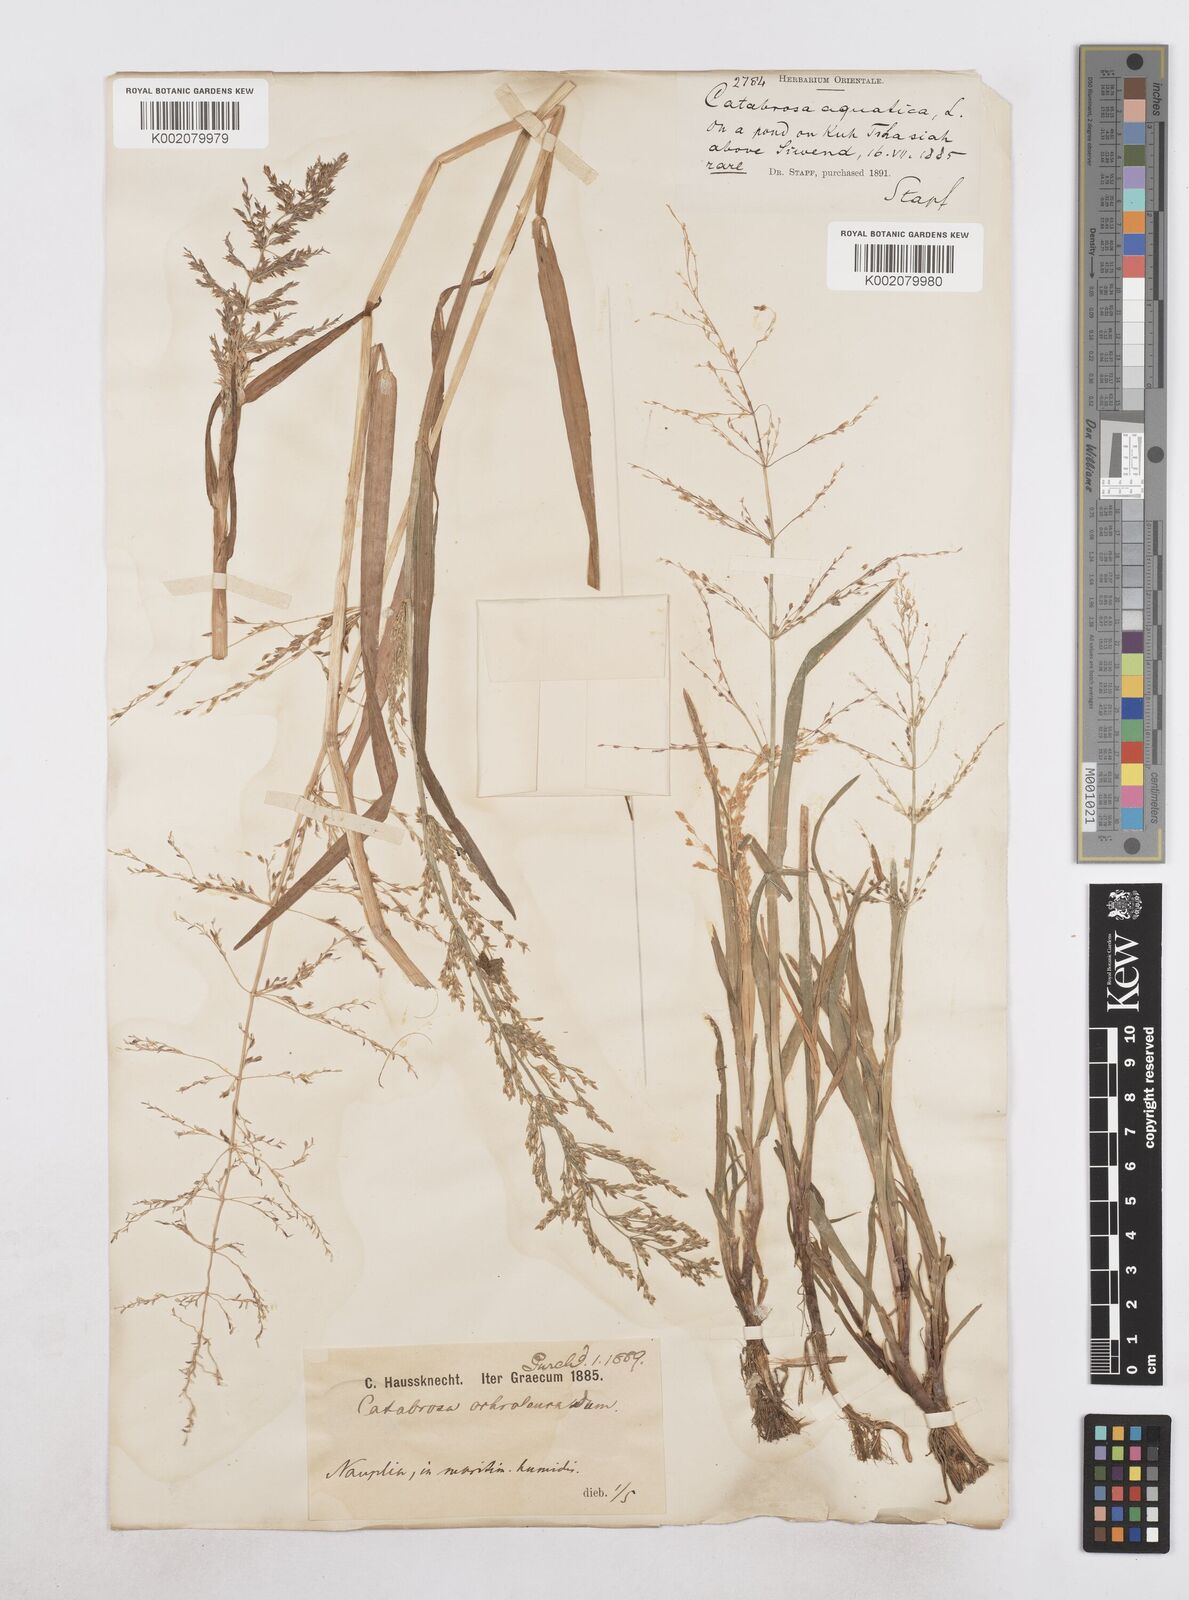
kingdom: Plantae
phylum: Tracheophyta
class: Liliopsida
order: Poales
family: Poaceae
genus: Catabrosa
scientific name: Catabrosa aquatica
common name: Whorl-grass
